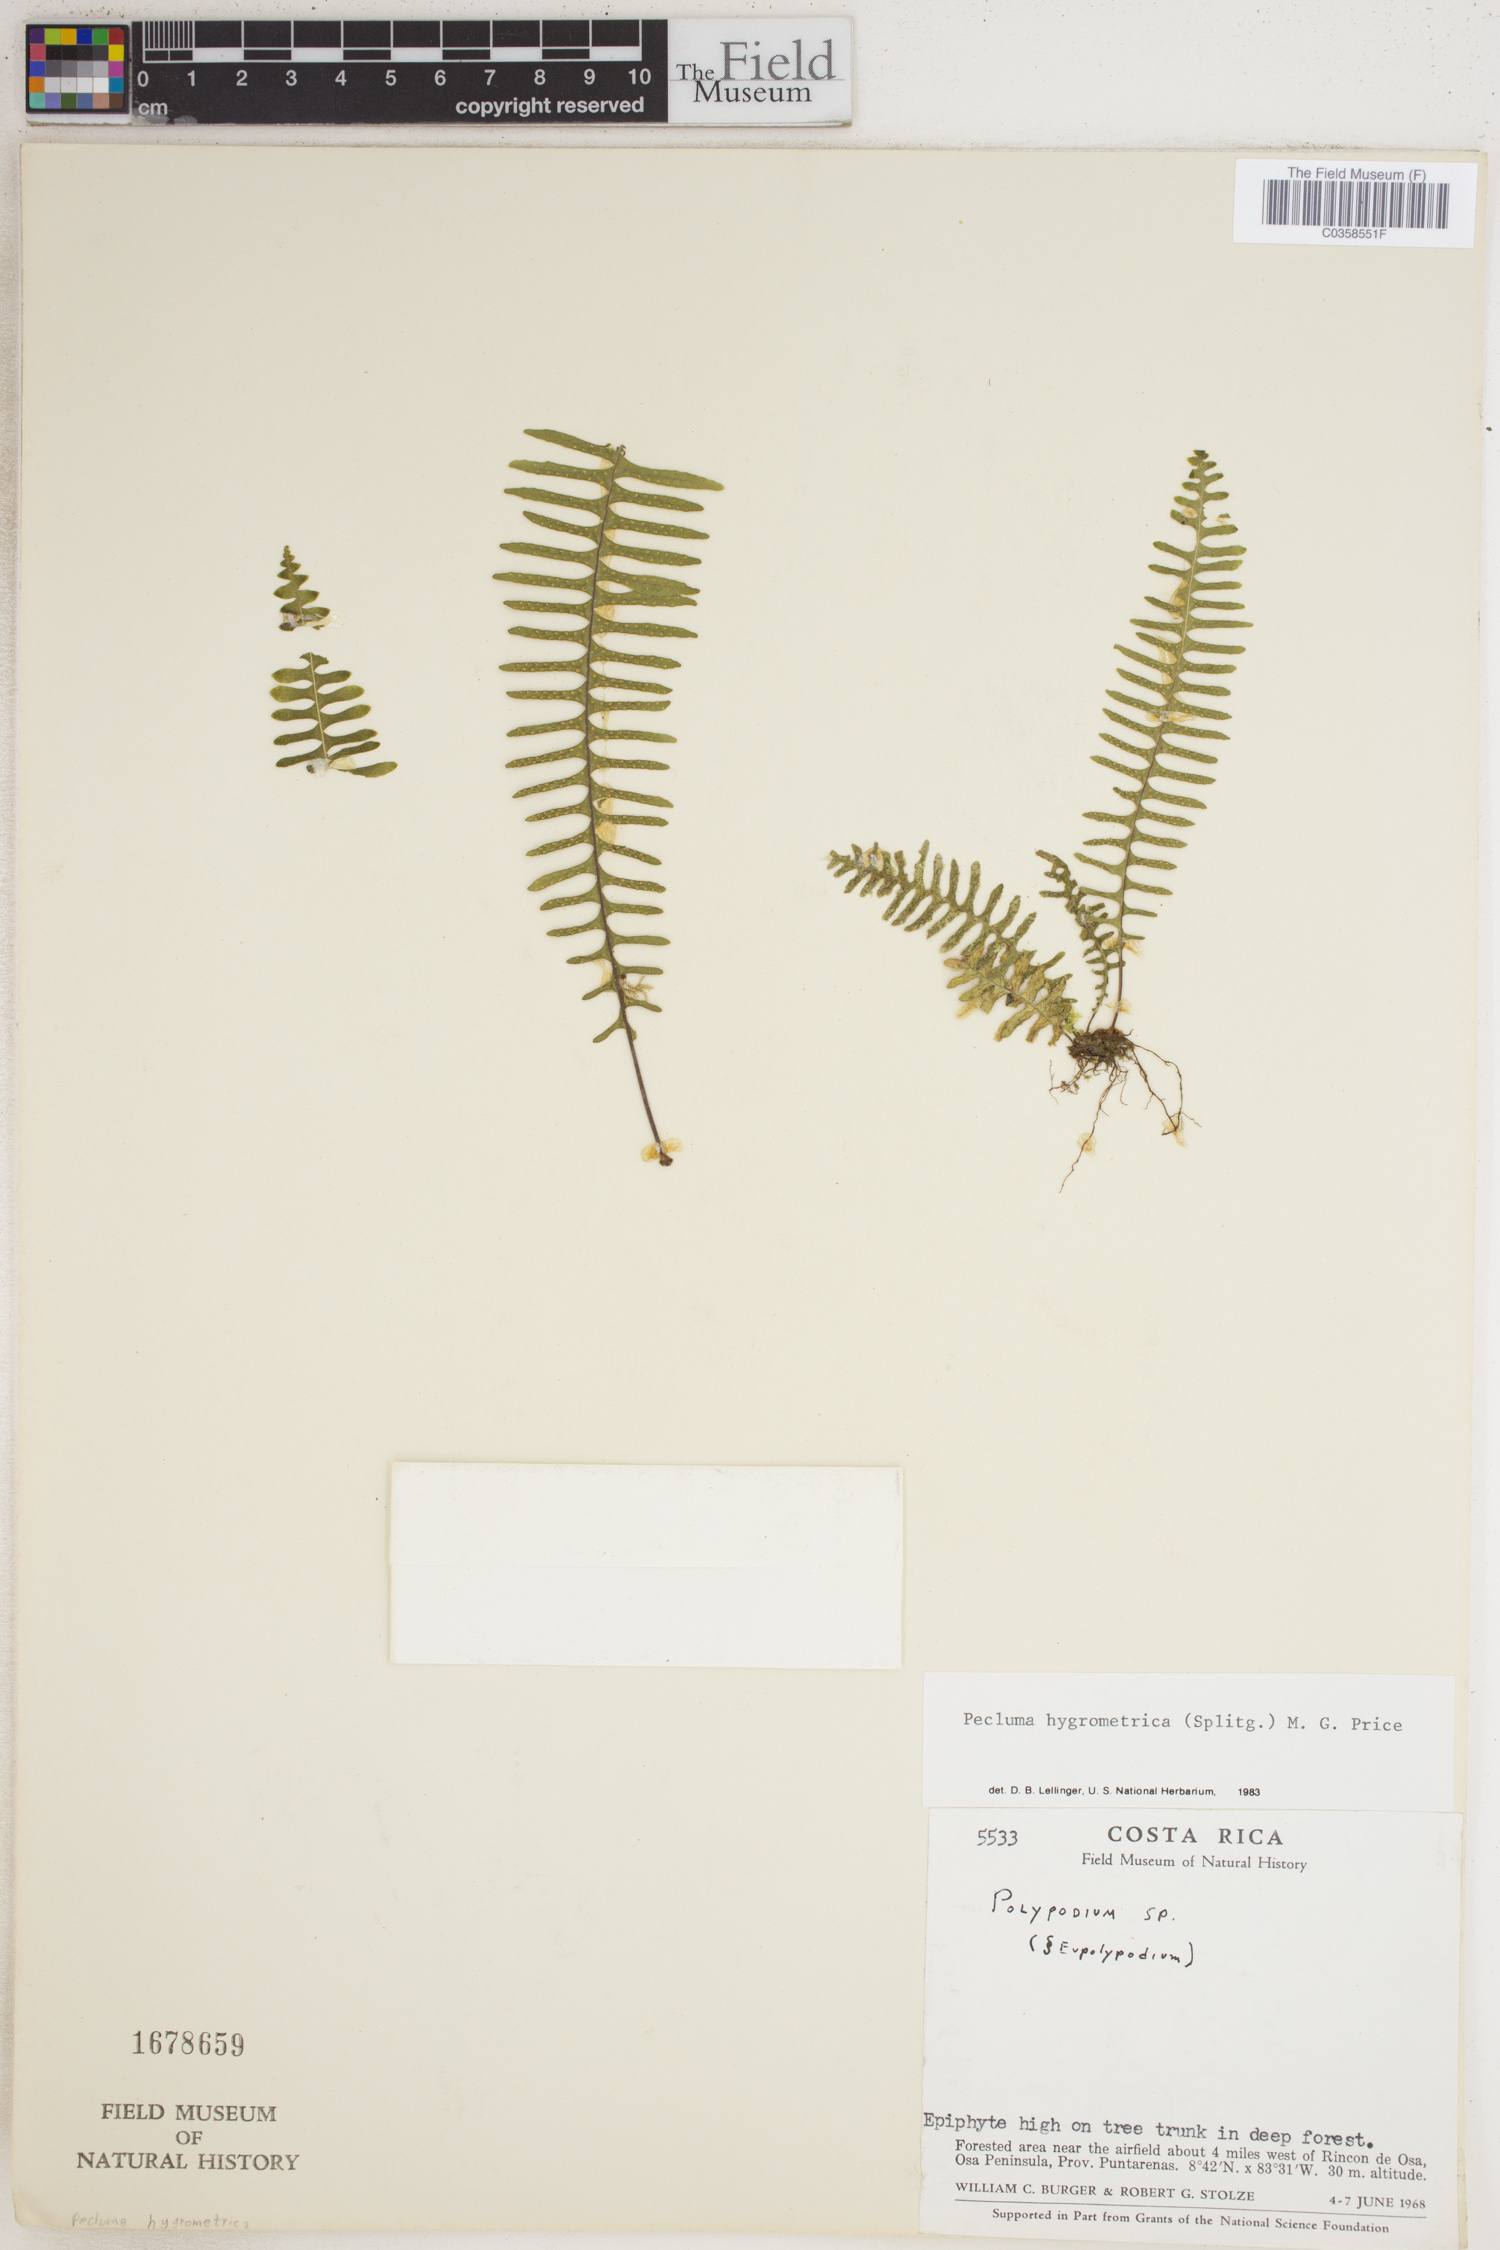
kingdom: Plantae
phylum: Tracheophyta
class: Polypodiopsida
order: Polypodiales
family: Polypodiaceae
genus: Pecluma
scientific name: Pecluma hygrometrica
